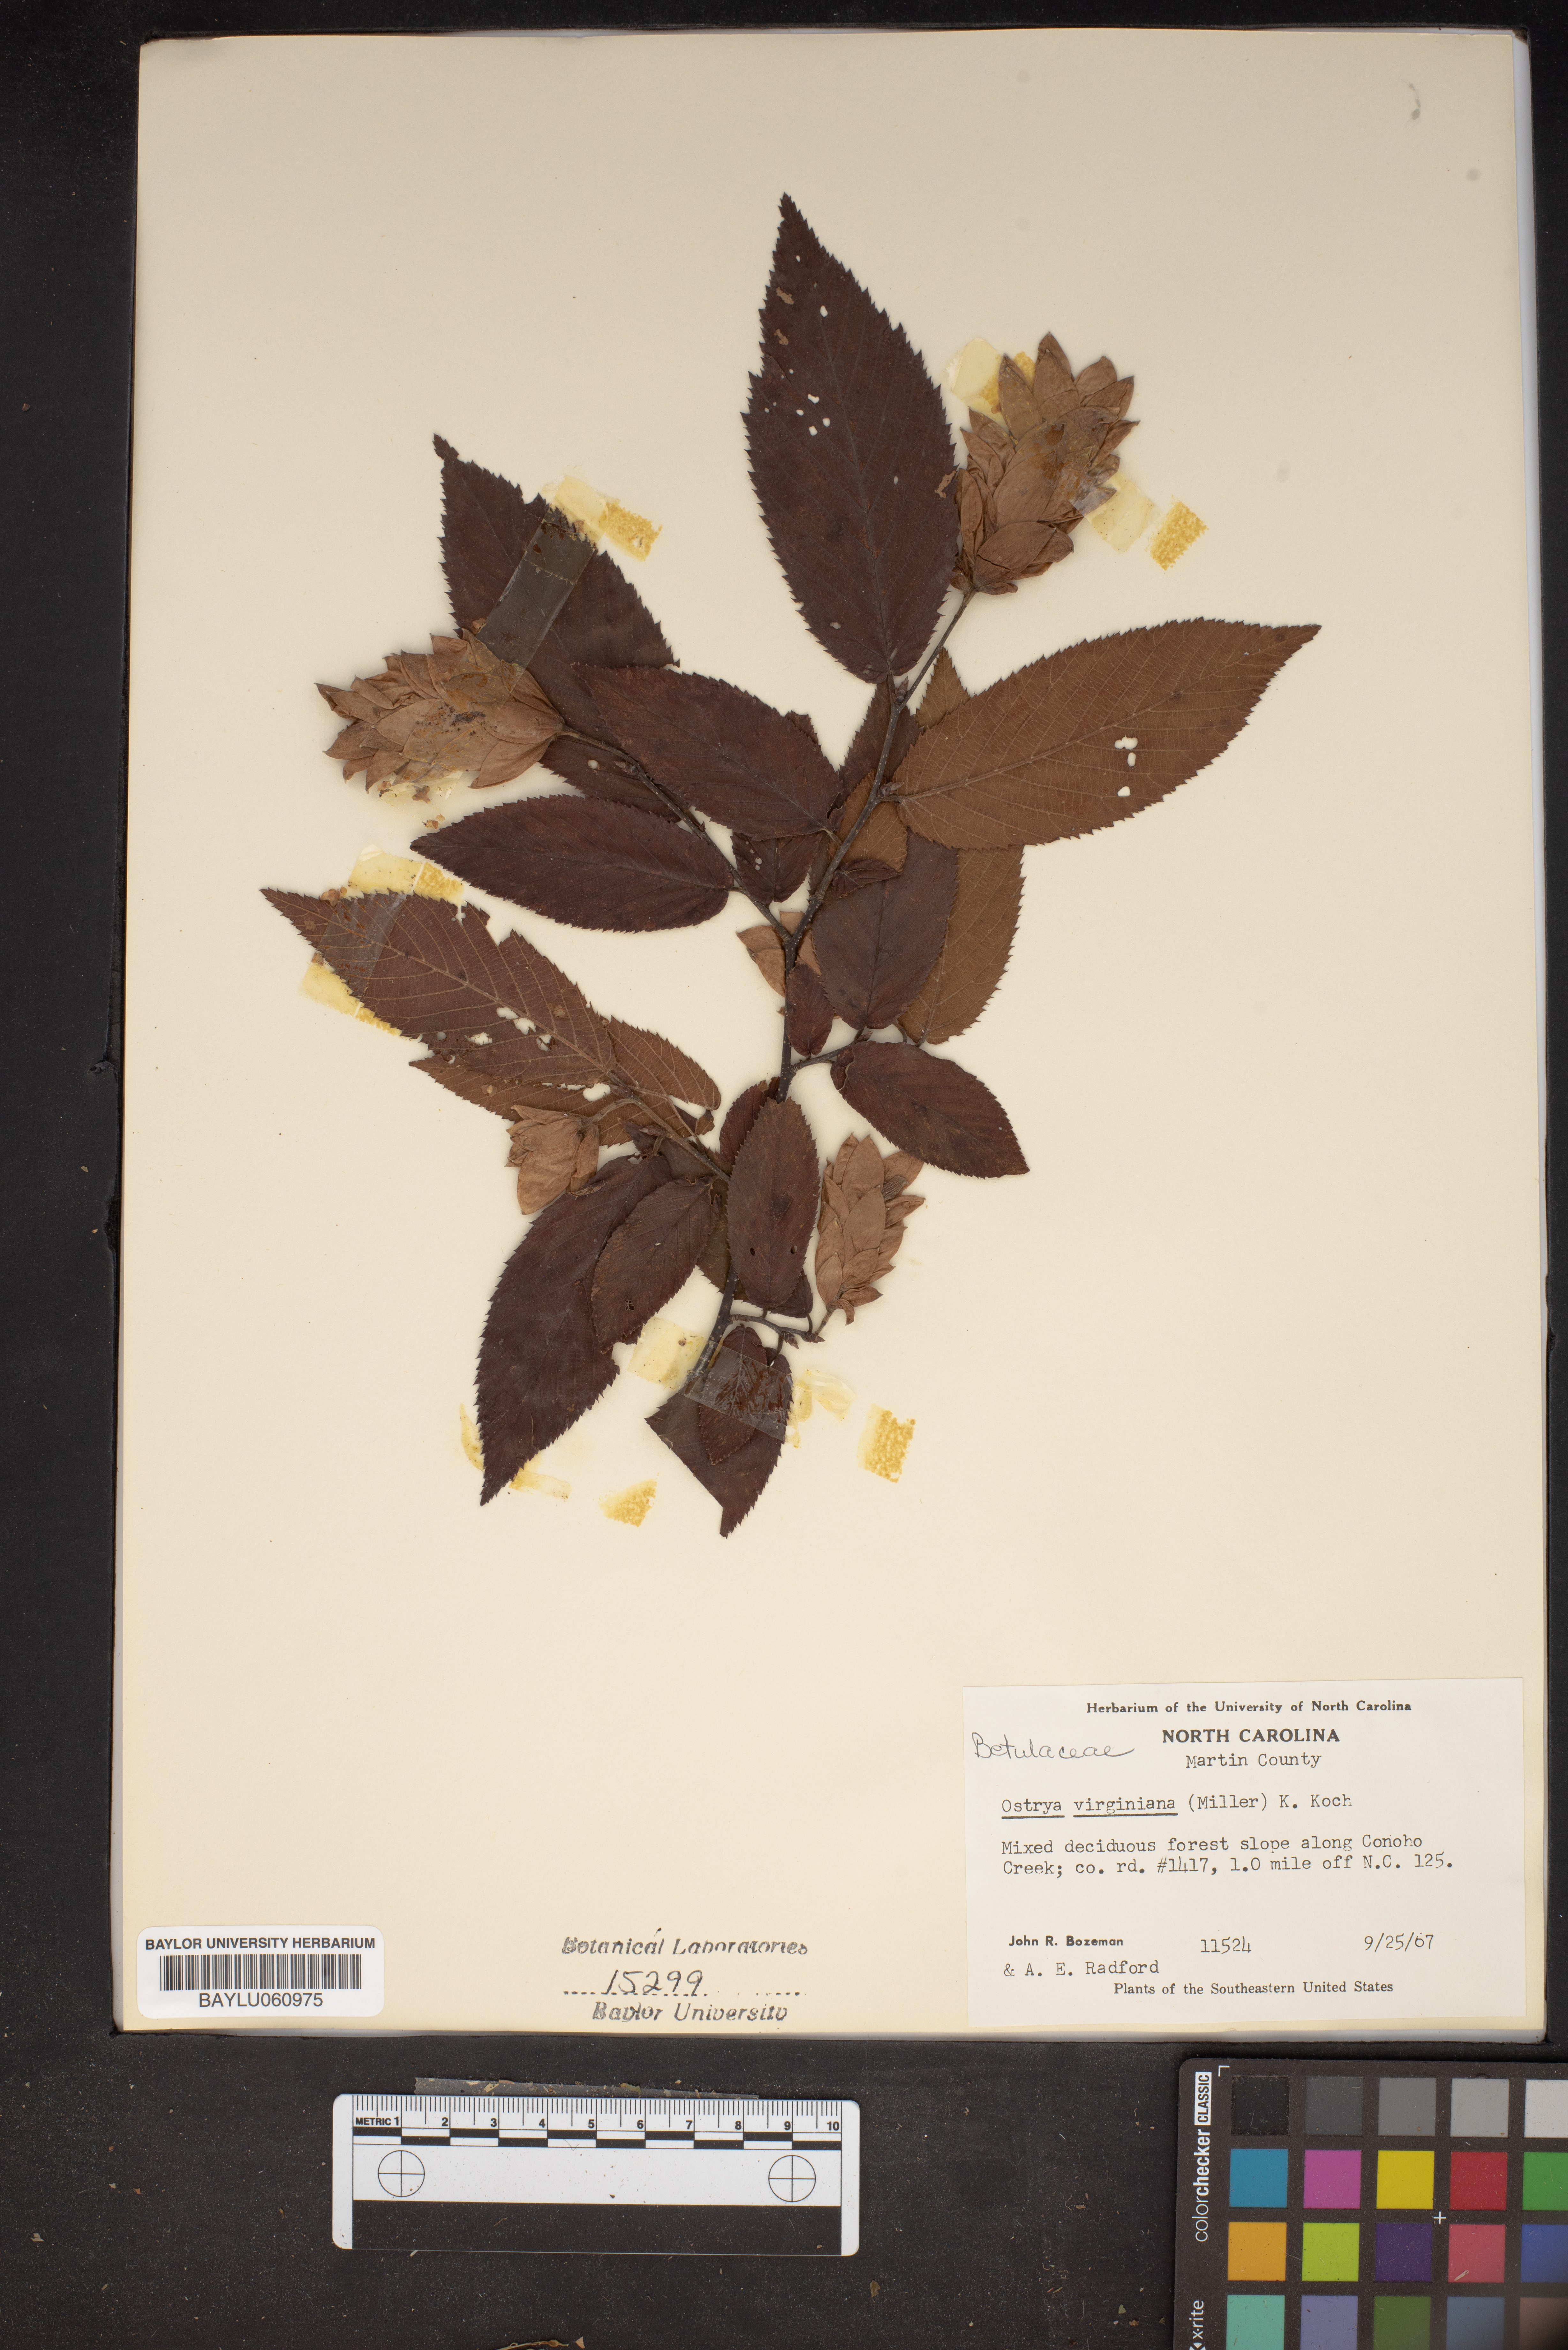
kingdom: Plantae
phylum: Tracheophyta
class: Magnoliopsida
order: Fagales
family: Betulaceae
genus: Ostrya
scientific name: Ostrya virginiana
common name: Ironwood
